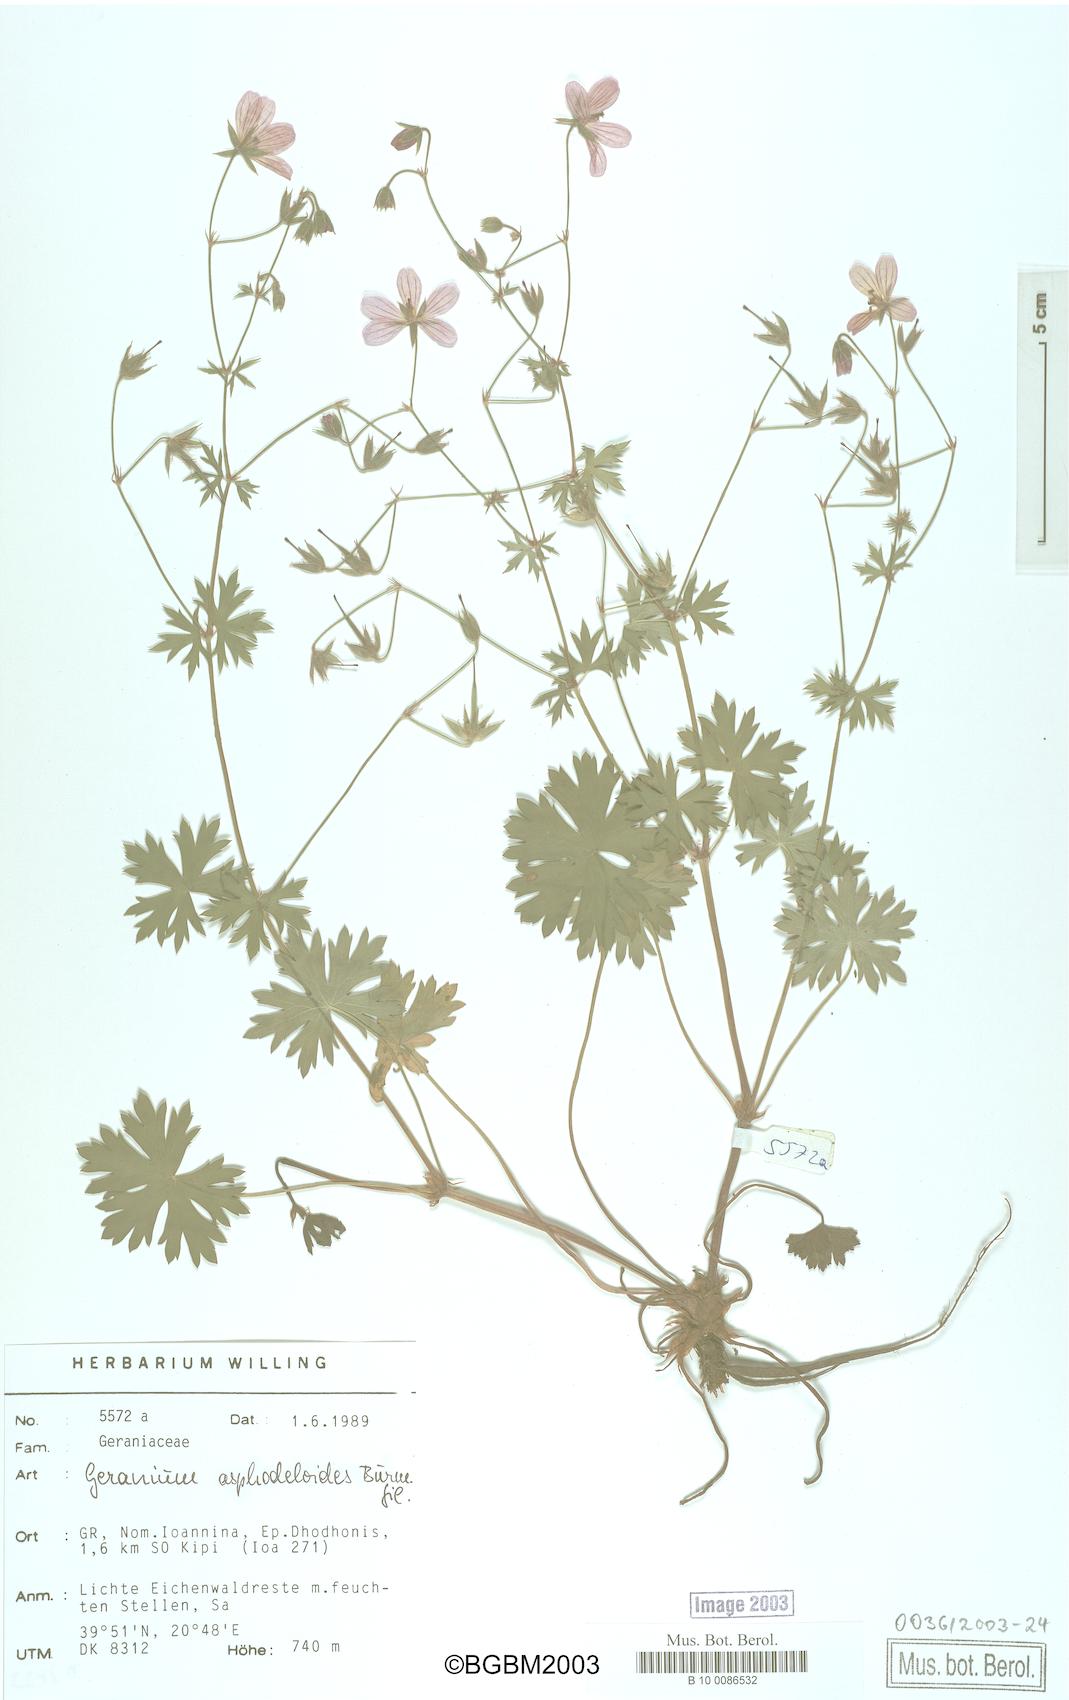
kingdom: Plantae
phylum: Tracheophyta
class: Magnoliopsida
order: Geraniales
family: Geraniaceae
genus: Geranium
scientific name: Geranium asphodeloides
